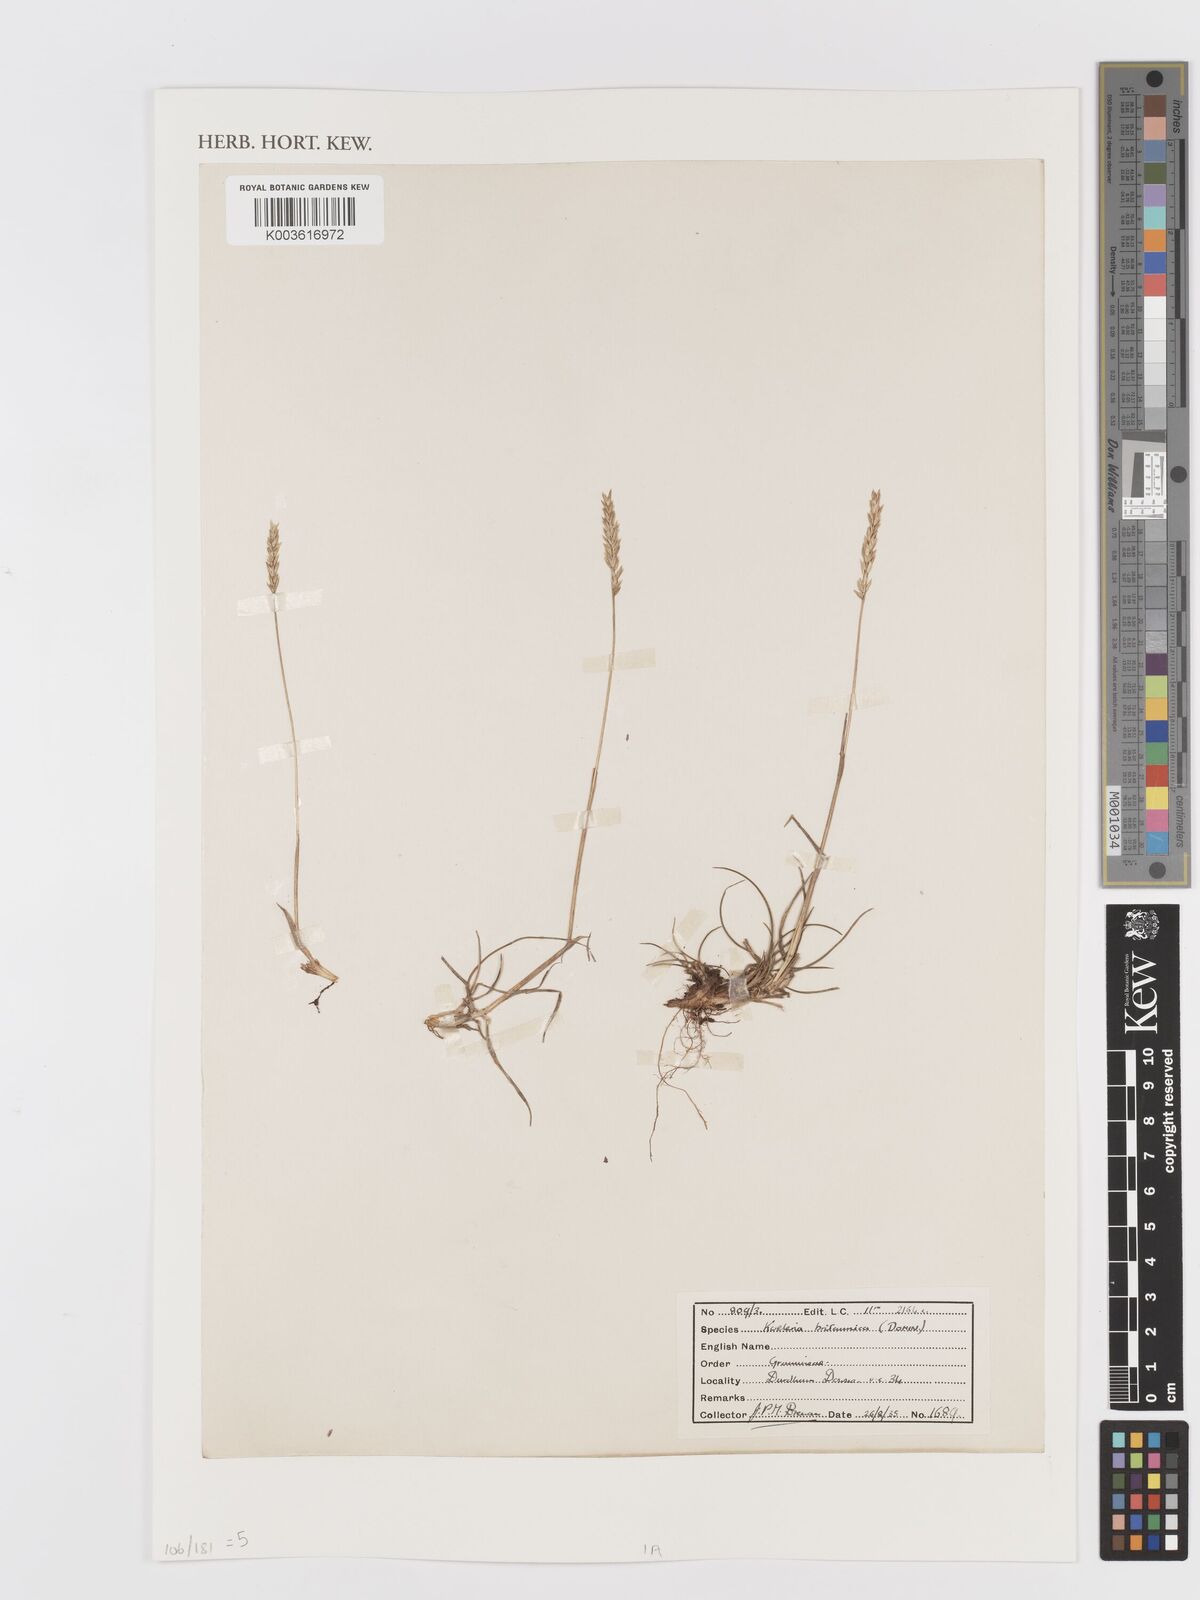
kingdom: Plantae
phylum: Tracheophyta
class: Liliopsida
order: Poales
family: Poaceae
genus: Koeleria
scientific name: Koeleria macrantha
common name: Crested hair-grass
